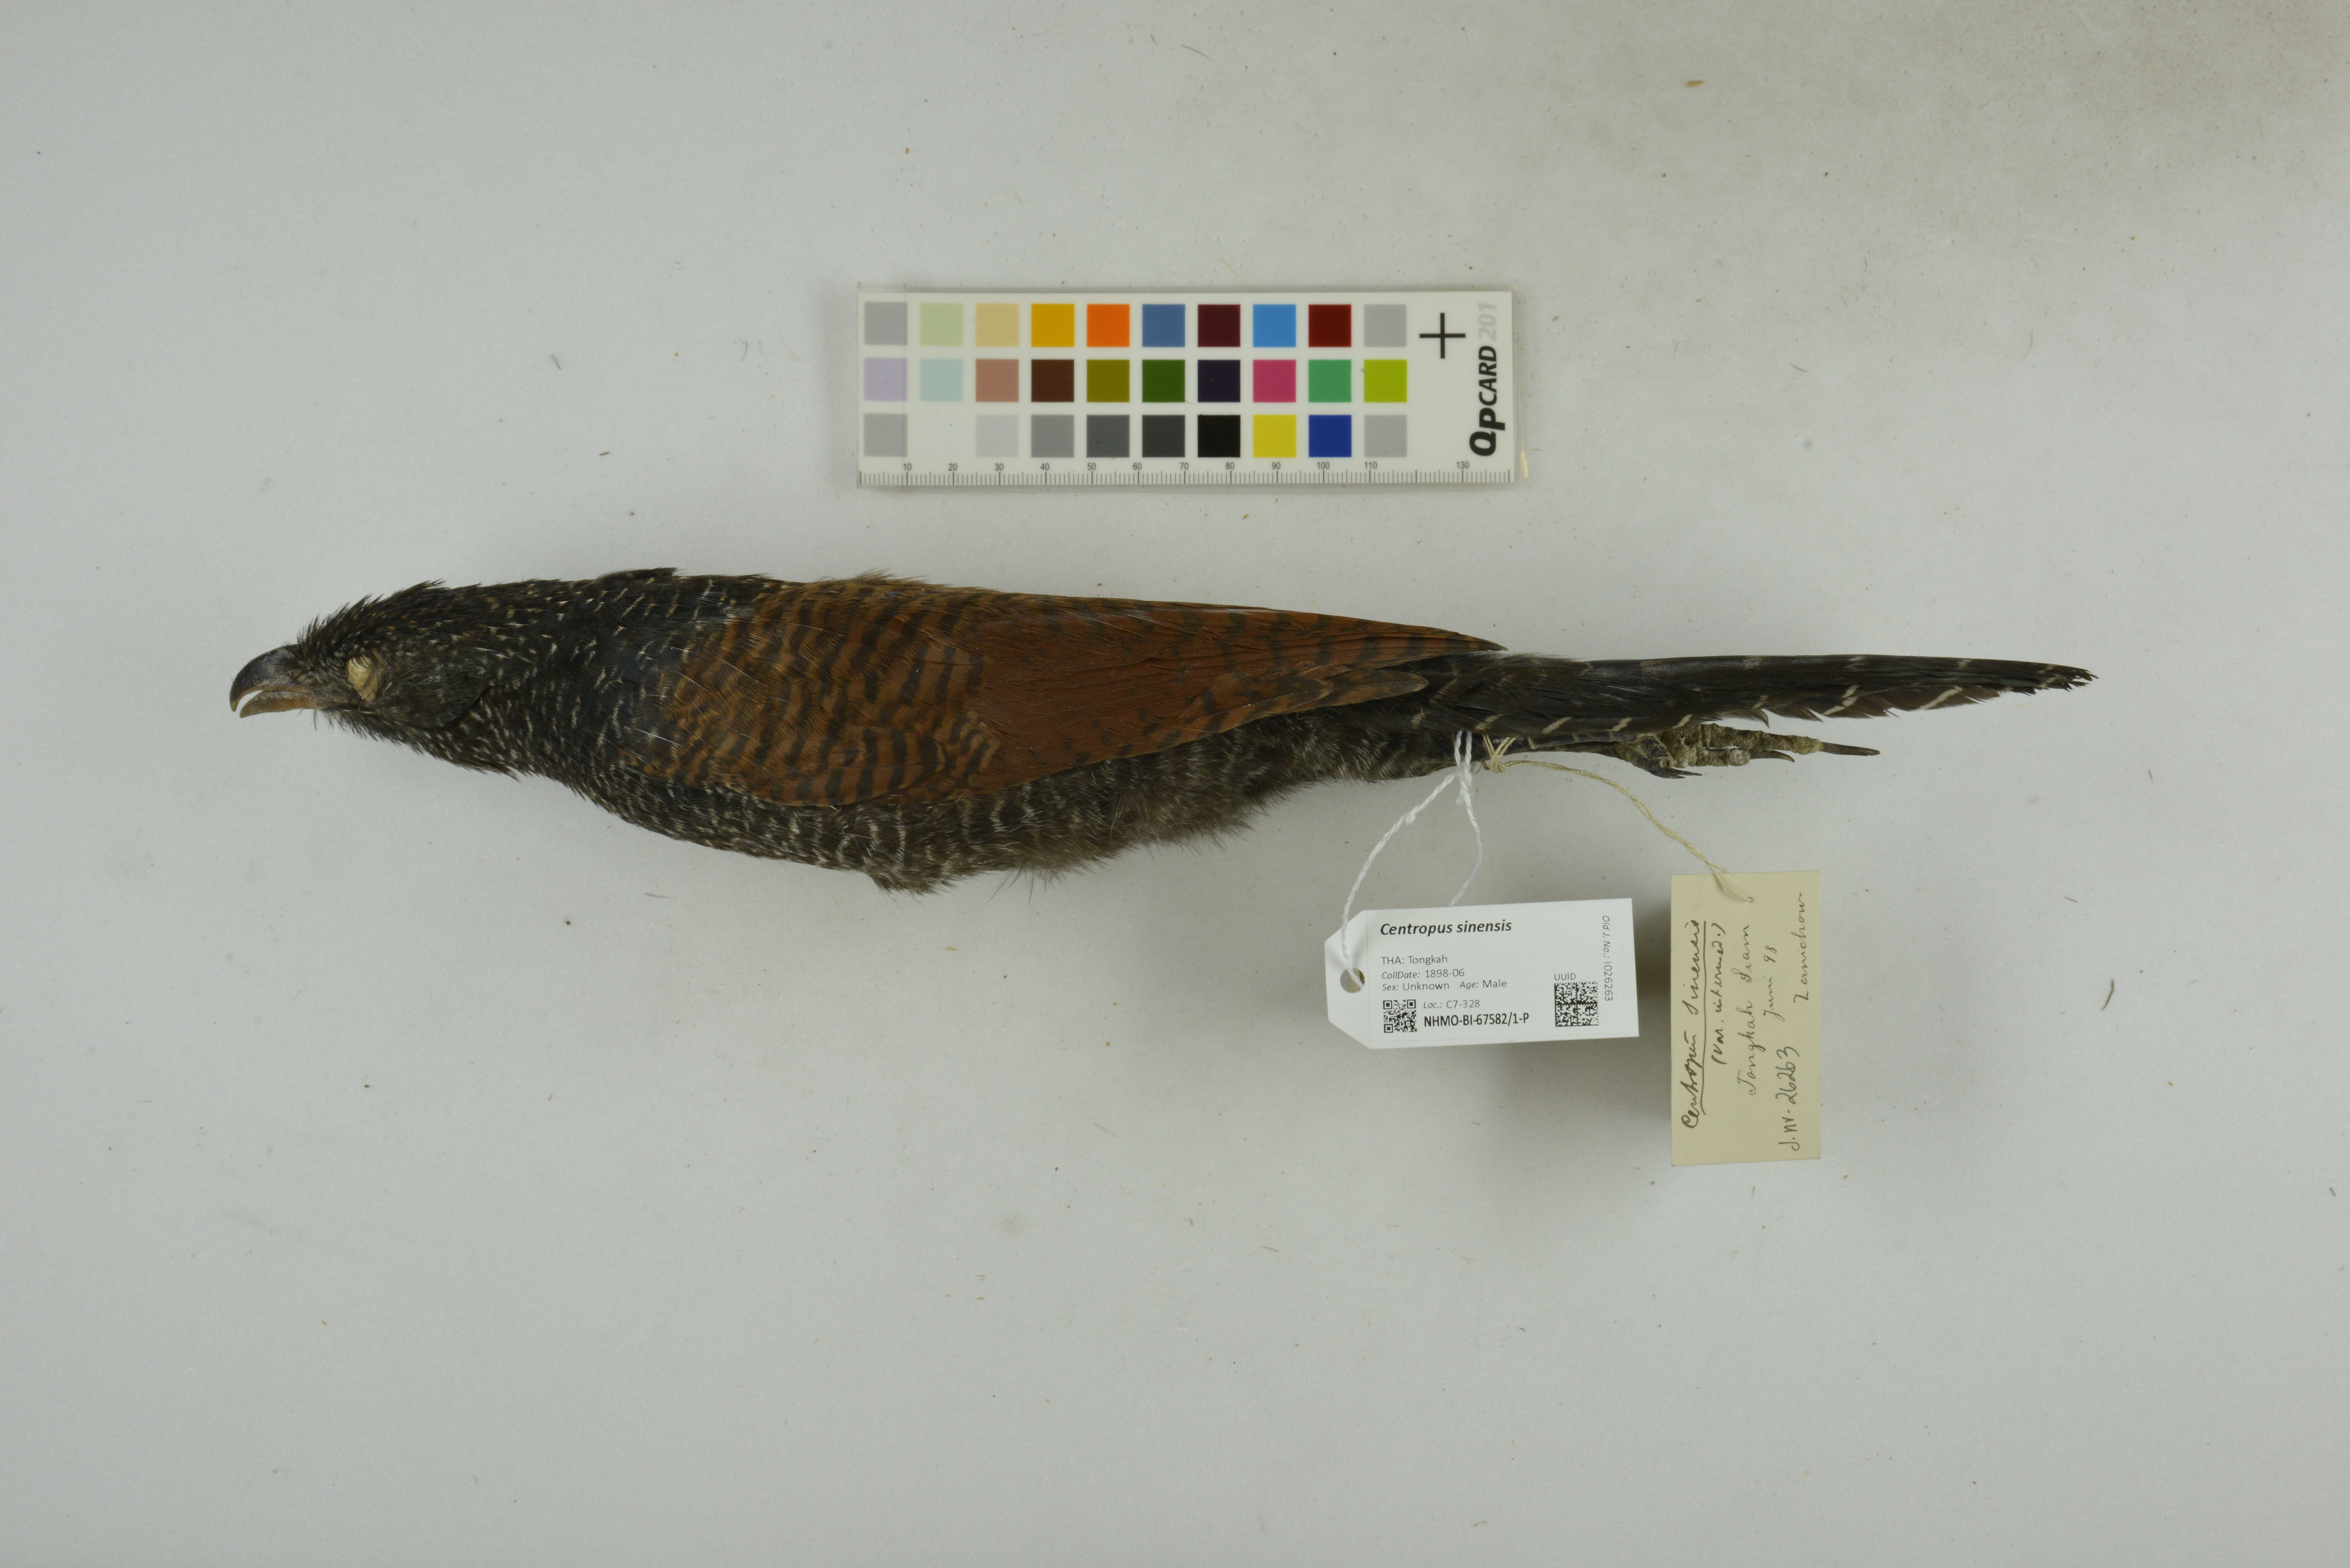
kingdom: Animalia
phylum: Chordata
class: Aves
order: Cuculiformes
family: Cuculidae
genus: Centropus
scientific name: Centropus sinensis
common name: Greater coucal
